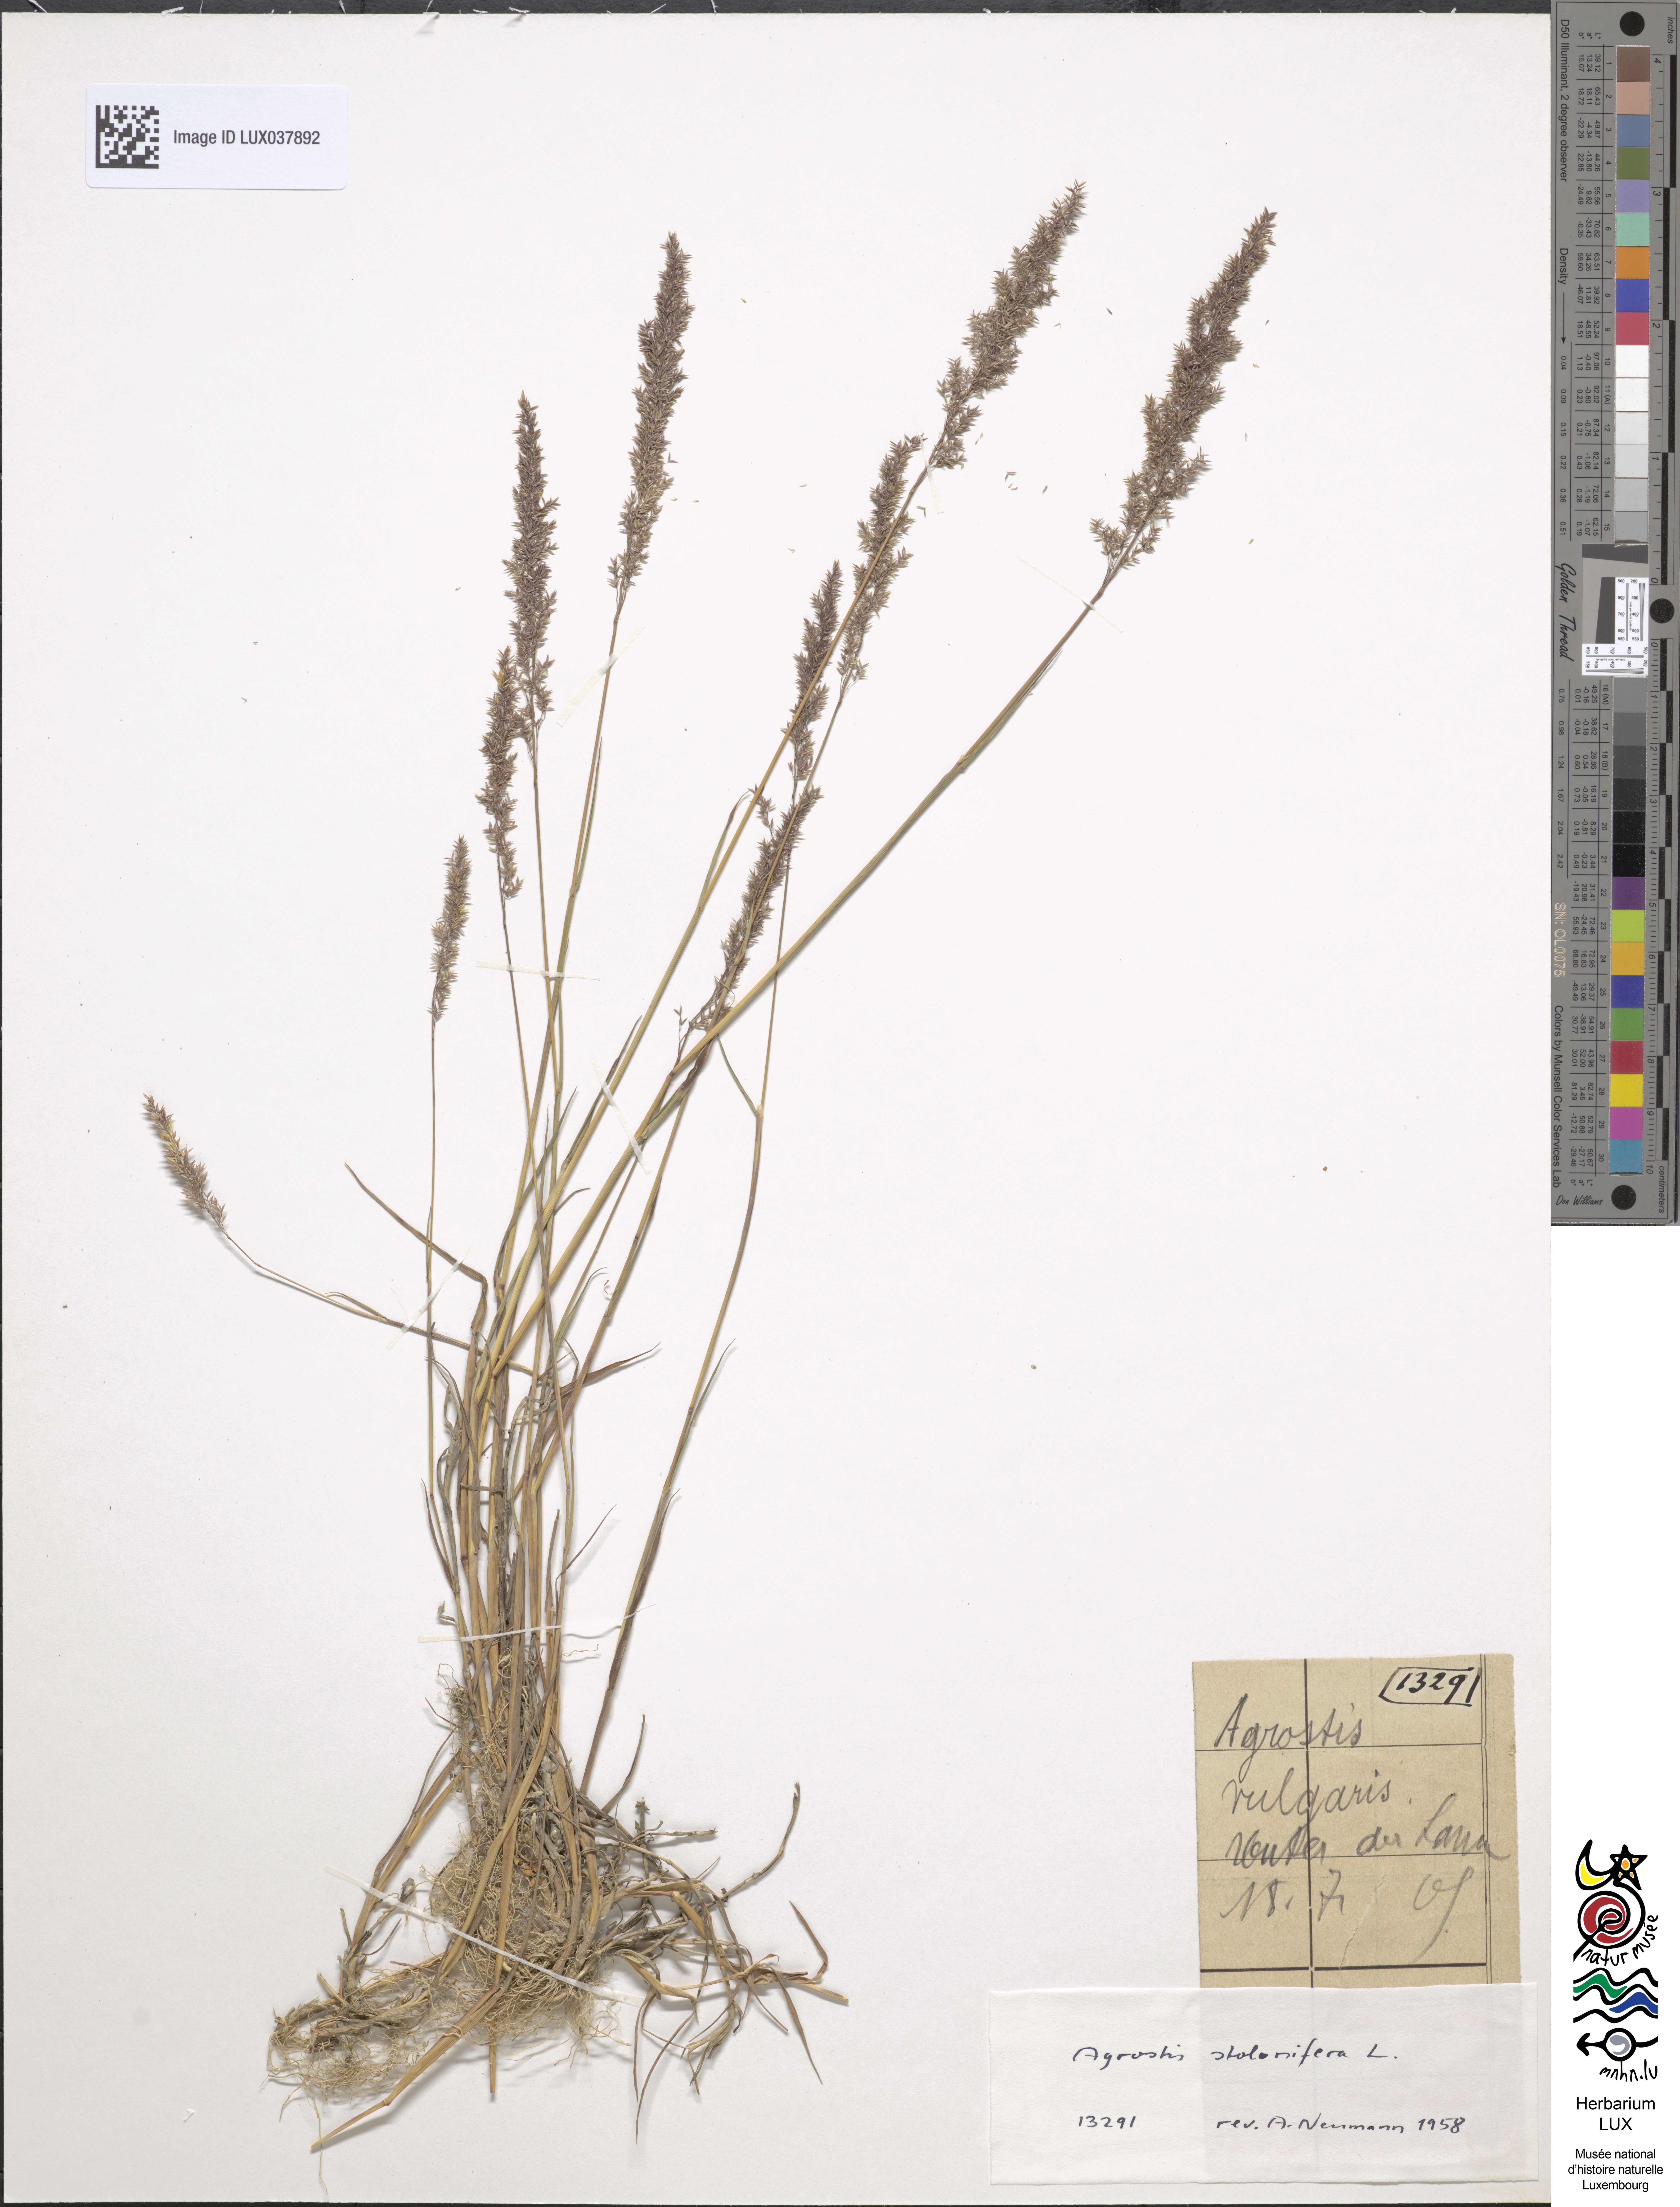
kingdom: Animalia
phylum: Arthropoda
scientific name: Arthropoda
